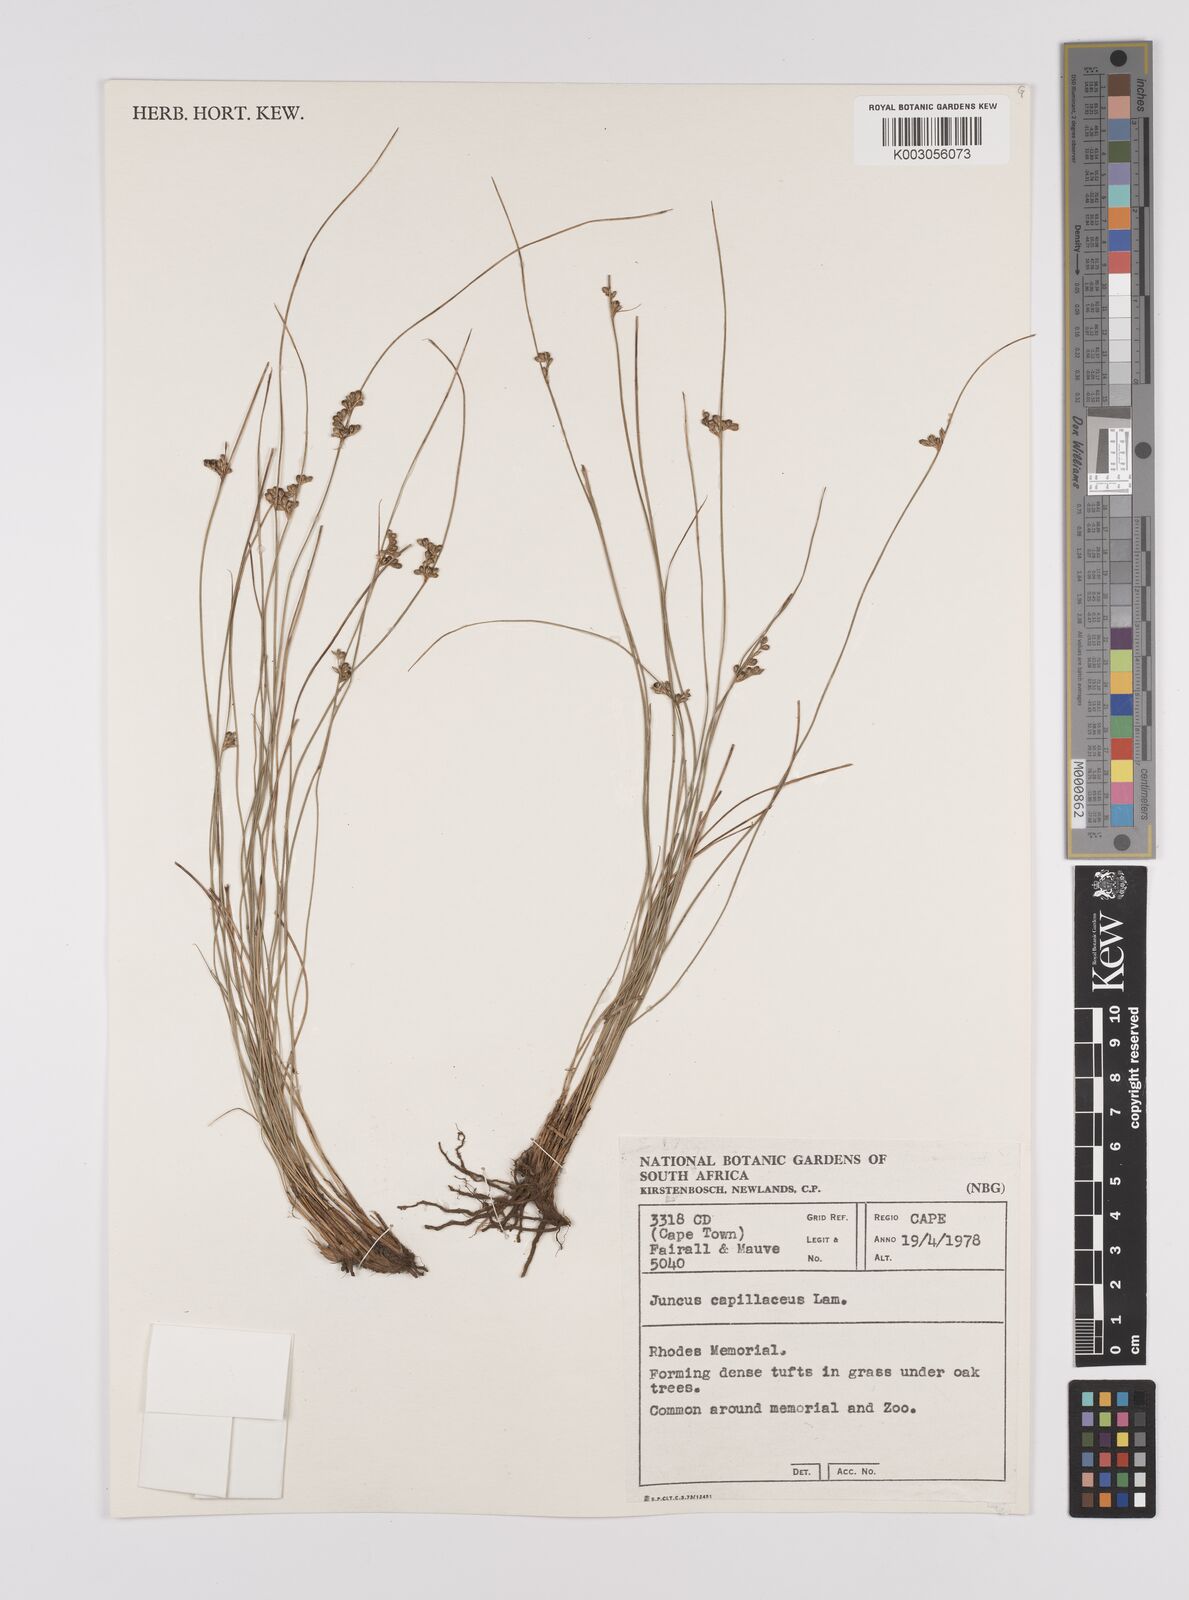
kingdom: Plantae
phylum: Tracheophyta
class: Liliopsida
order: Poales
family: Juncaceae
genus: Juncus
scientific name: Juncus capillaceus
